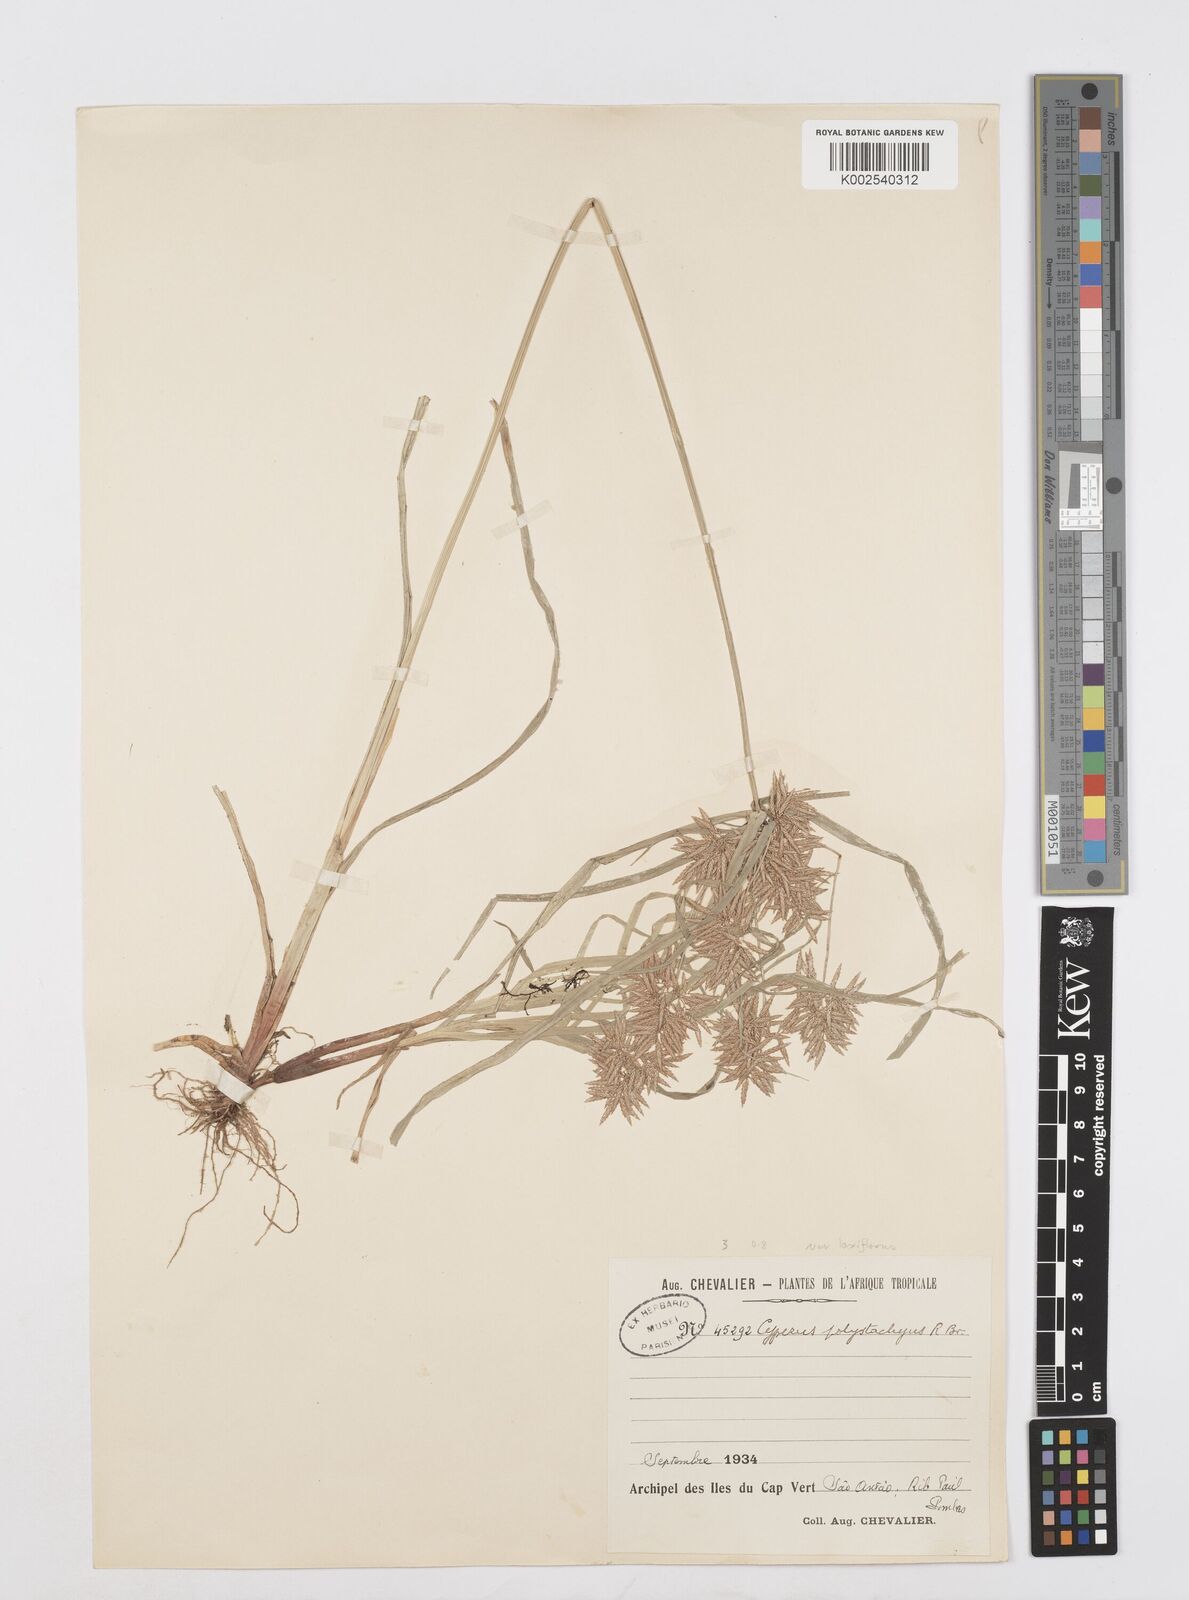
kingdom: Plantae
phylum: Tracheophyta
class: Liliopsida
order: Poales
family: Cyperaceae
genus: Cyperus
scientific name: Cyperus polystachyos
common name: Bunchy flat sedge
